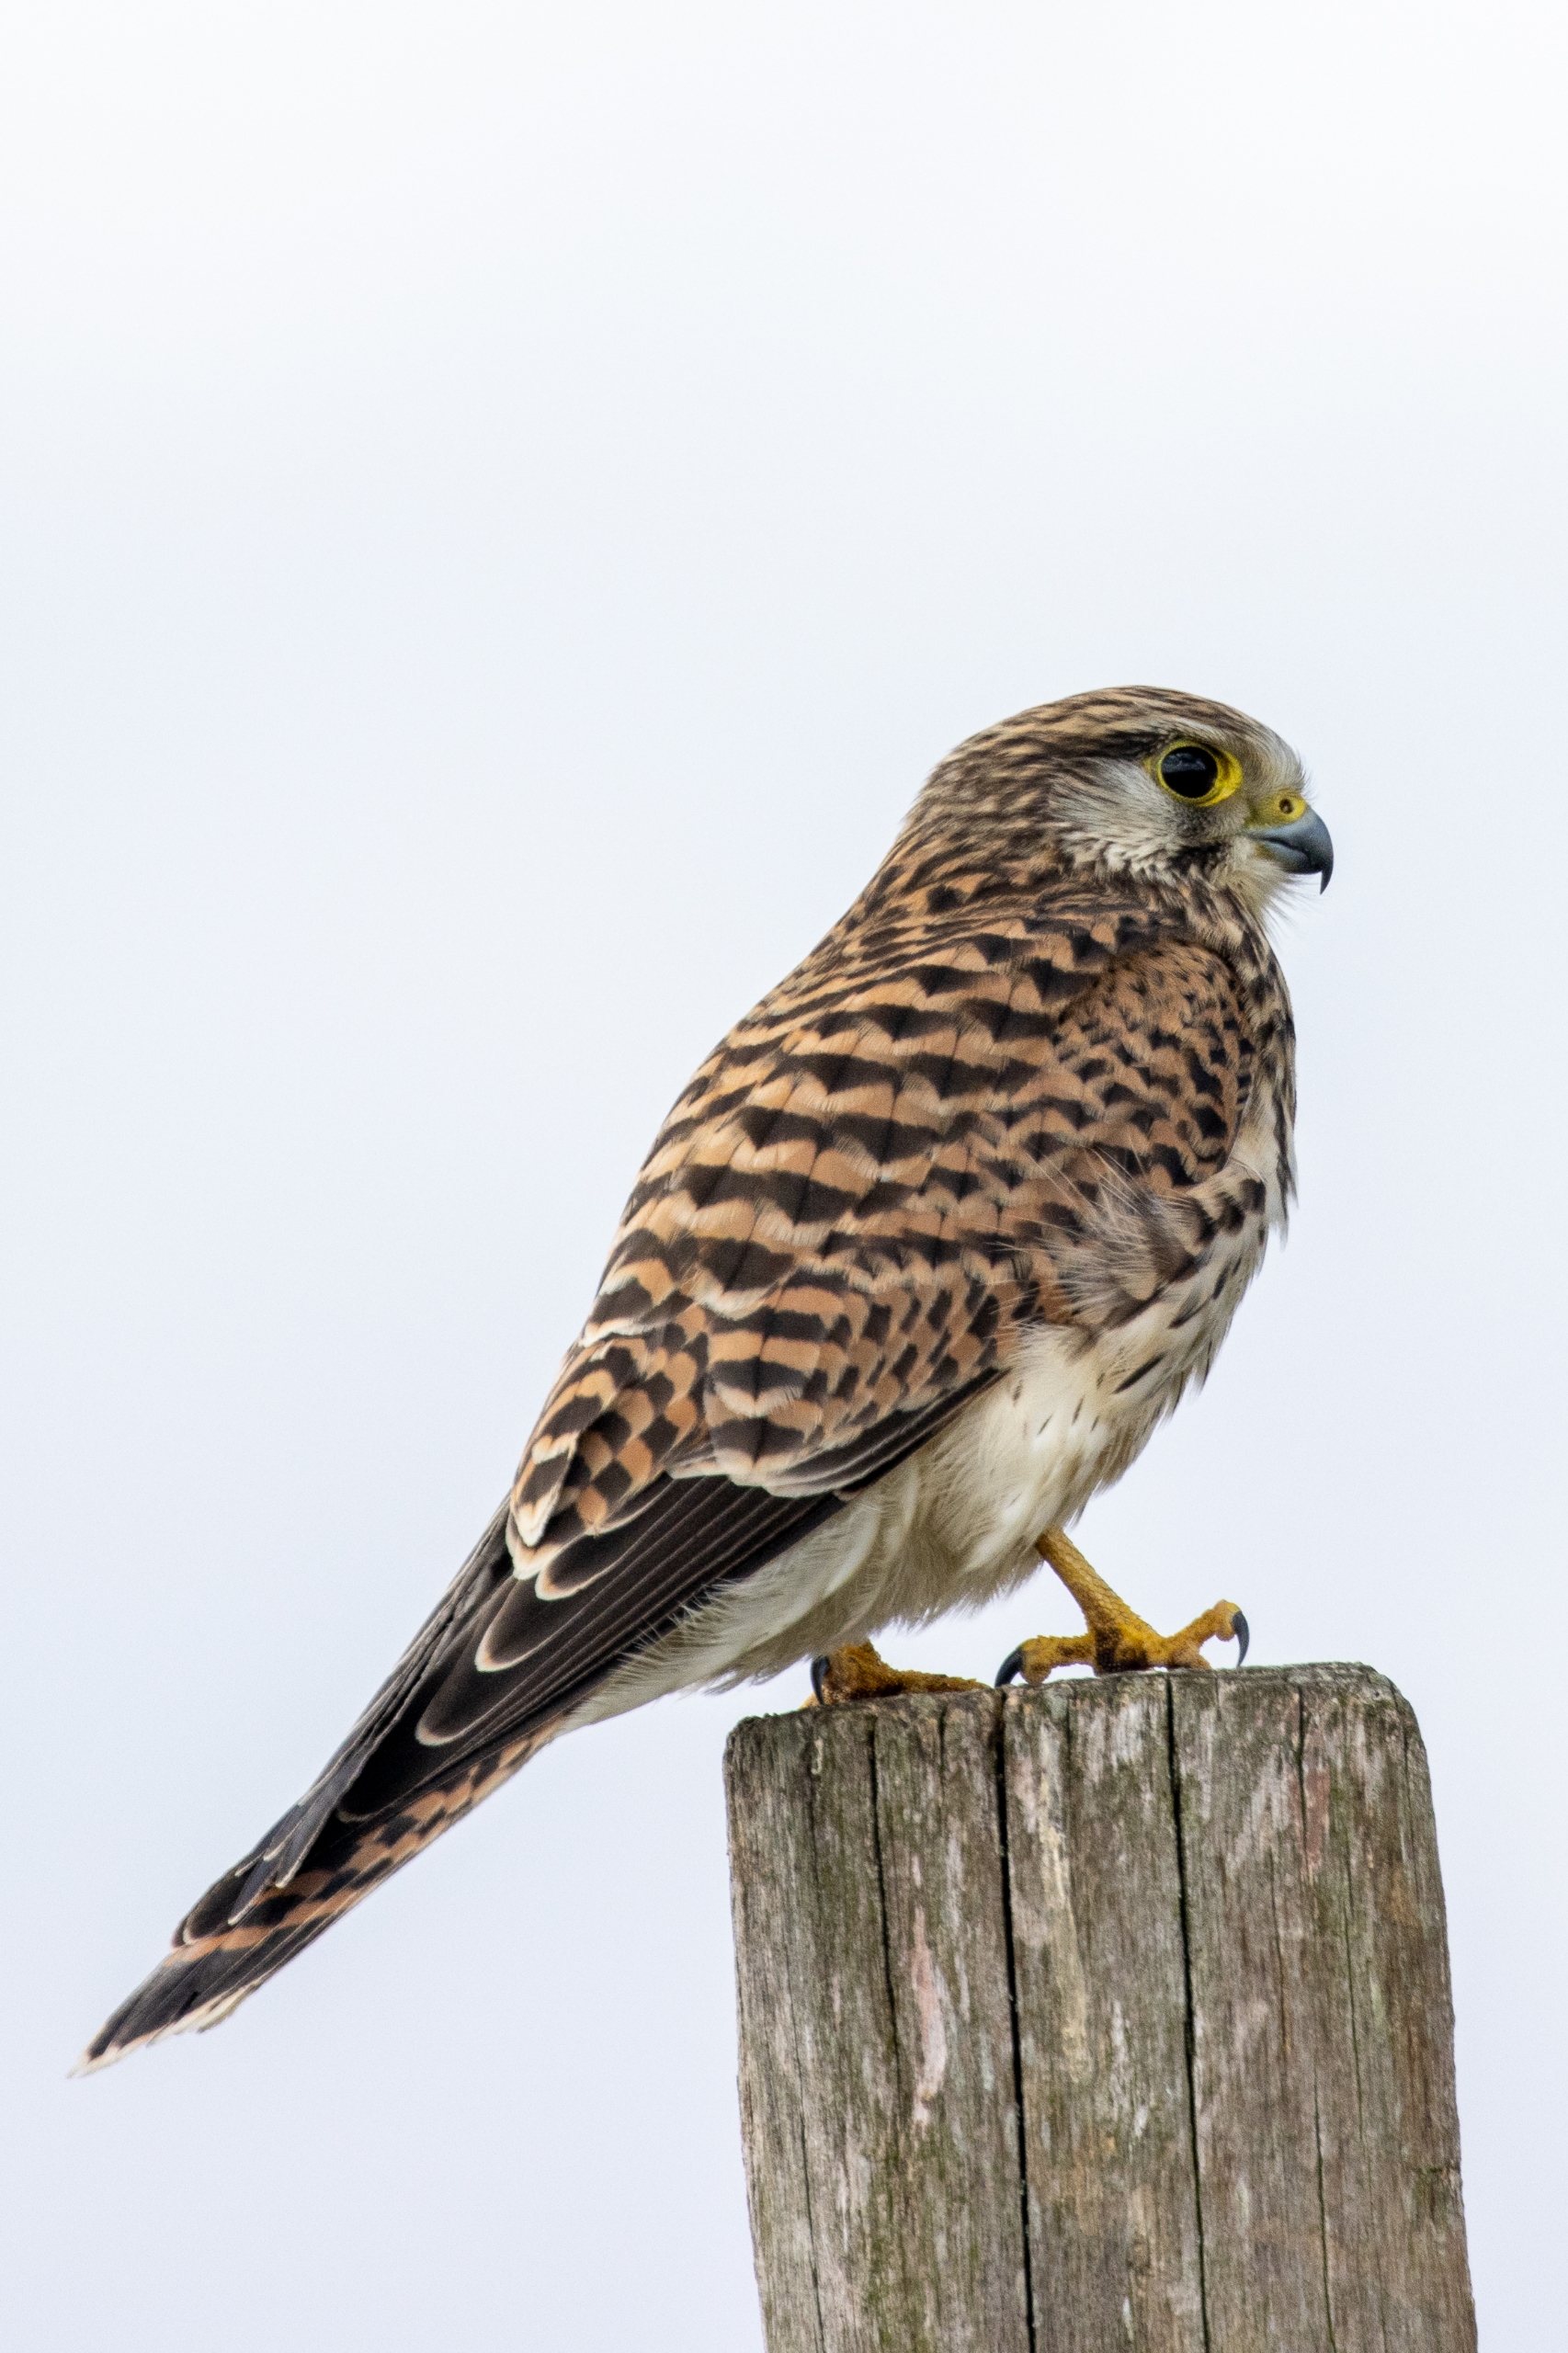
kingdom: Animalia
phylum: Chordata
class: Aves
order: Falconiformes
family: Falconidae
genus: Falco
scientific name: Falco tinnunculus
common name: Tårnfalk
